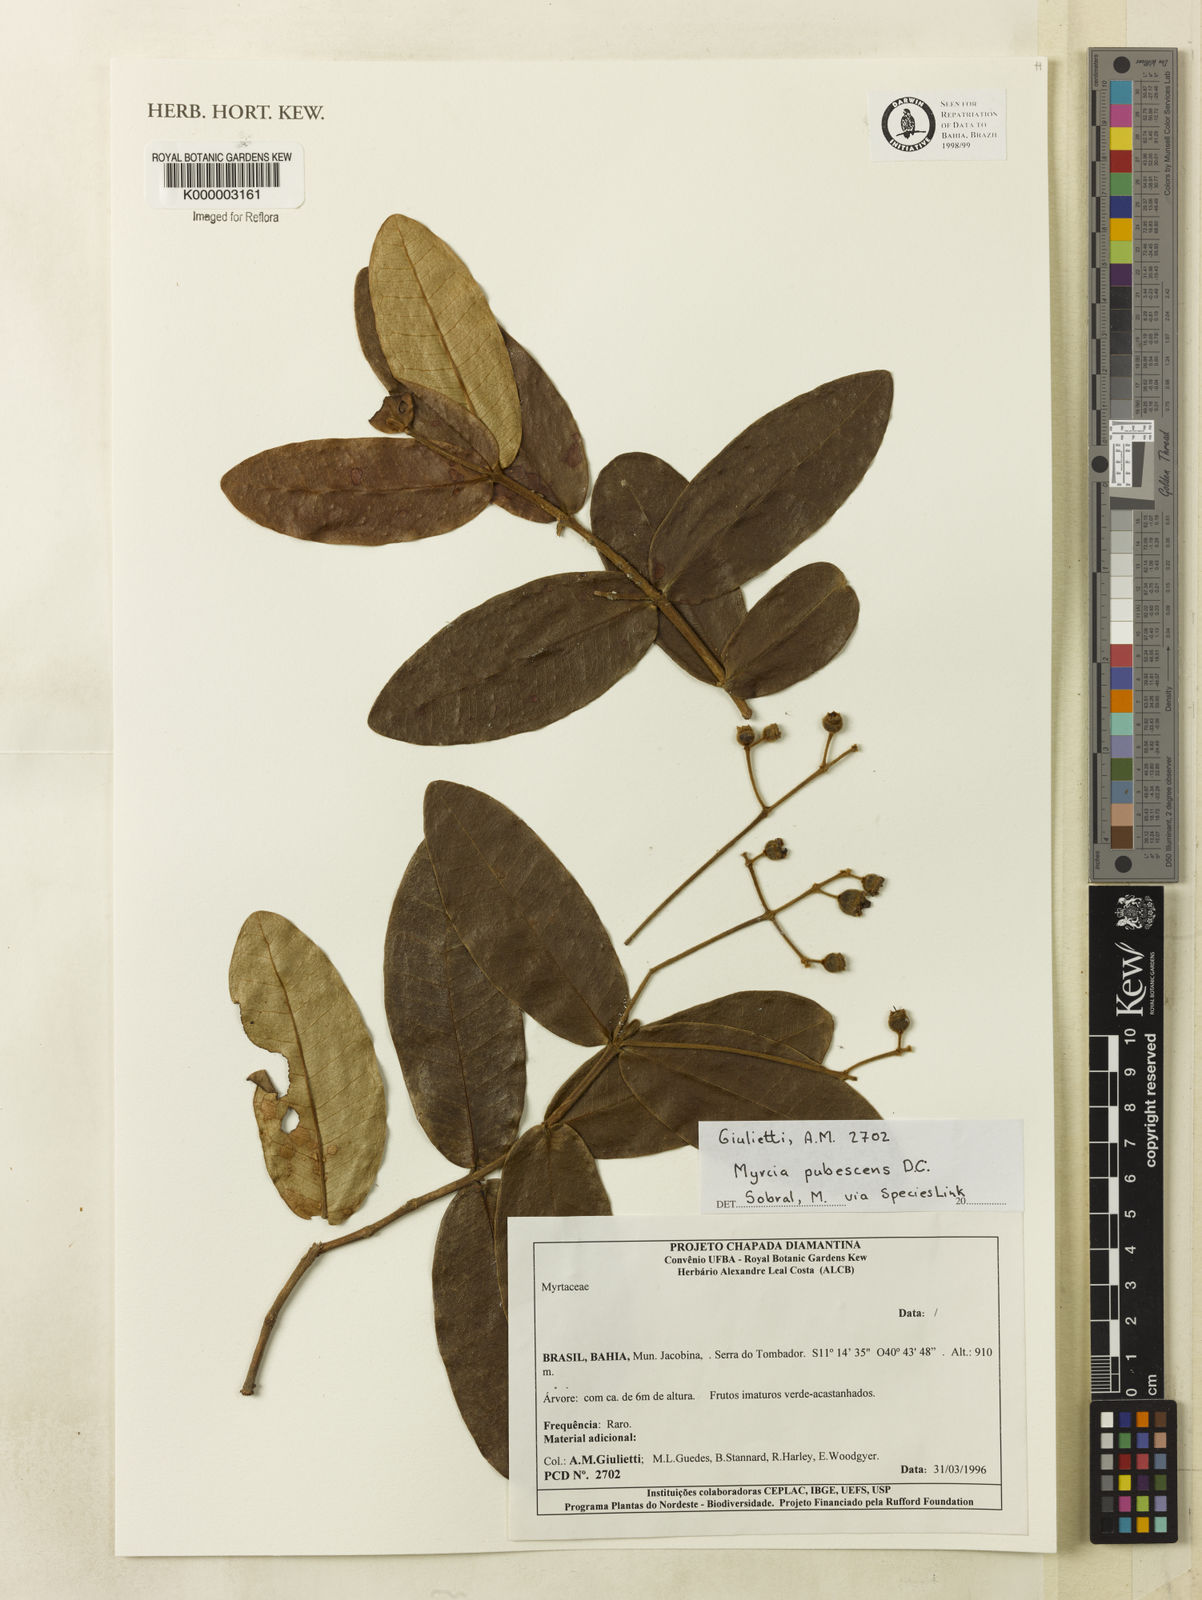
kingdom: Plantae
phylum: Tracheophyta
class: Magnoliopsida
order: Myrtales
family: Myrtaceae
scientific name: Myrtaceae
